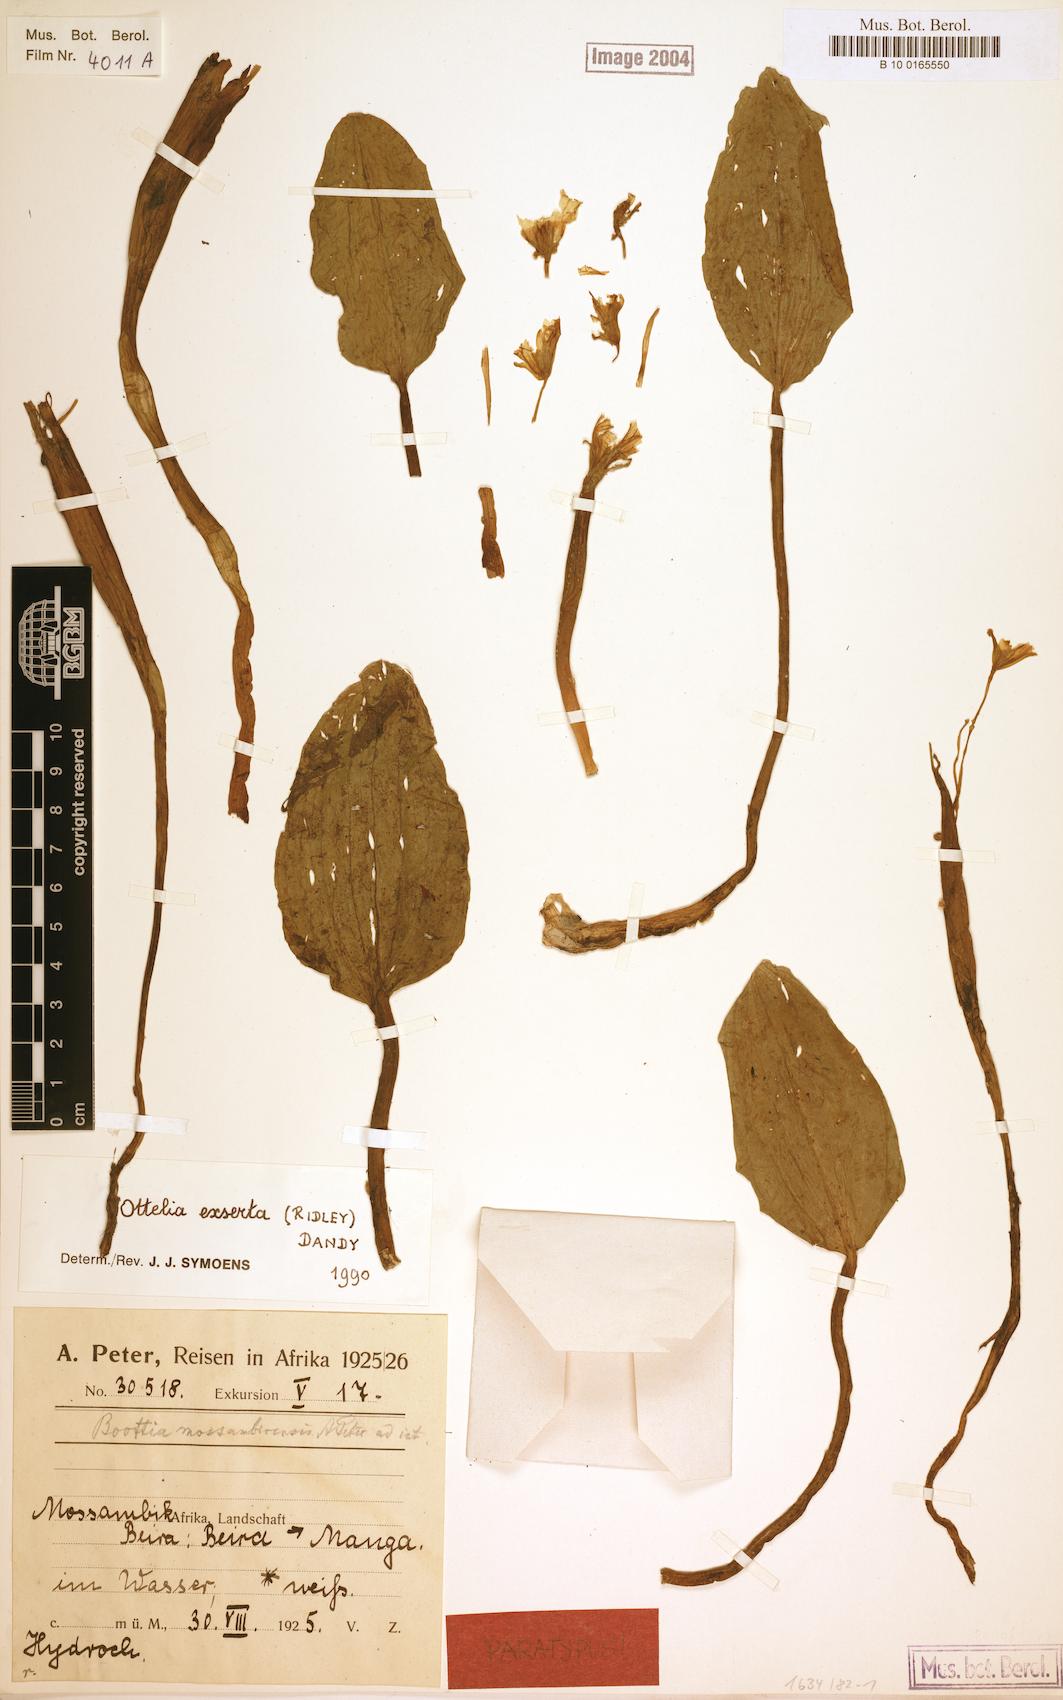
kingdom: Plantae
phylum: Tracheophyta
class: Liliopsida
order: Alismatales
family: Hydrocharitaceae
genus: Ottelia
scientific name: Ottelia exserta
